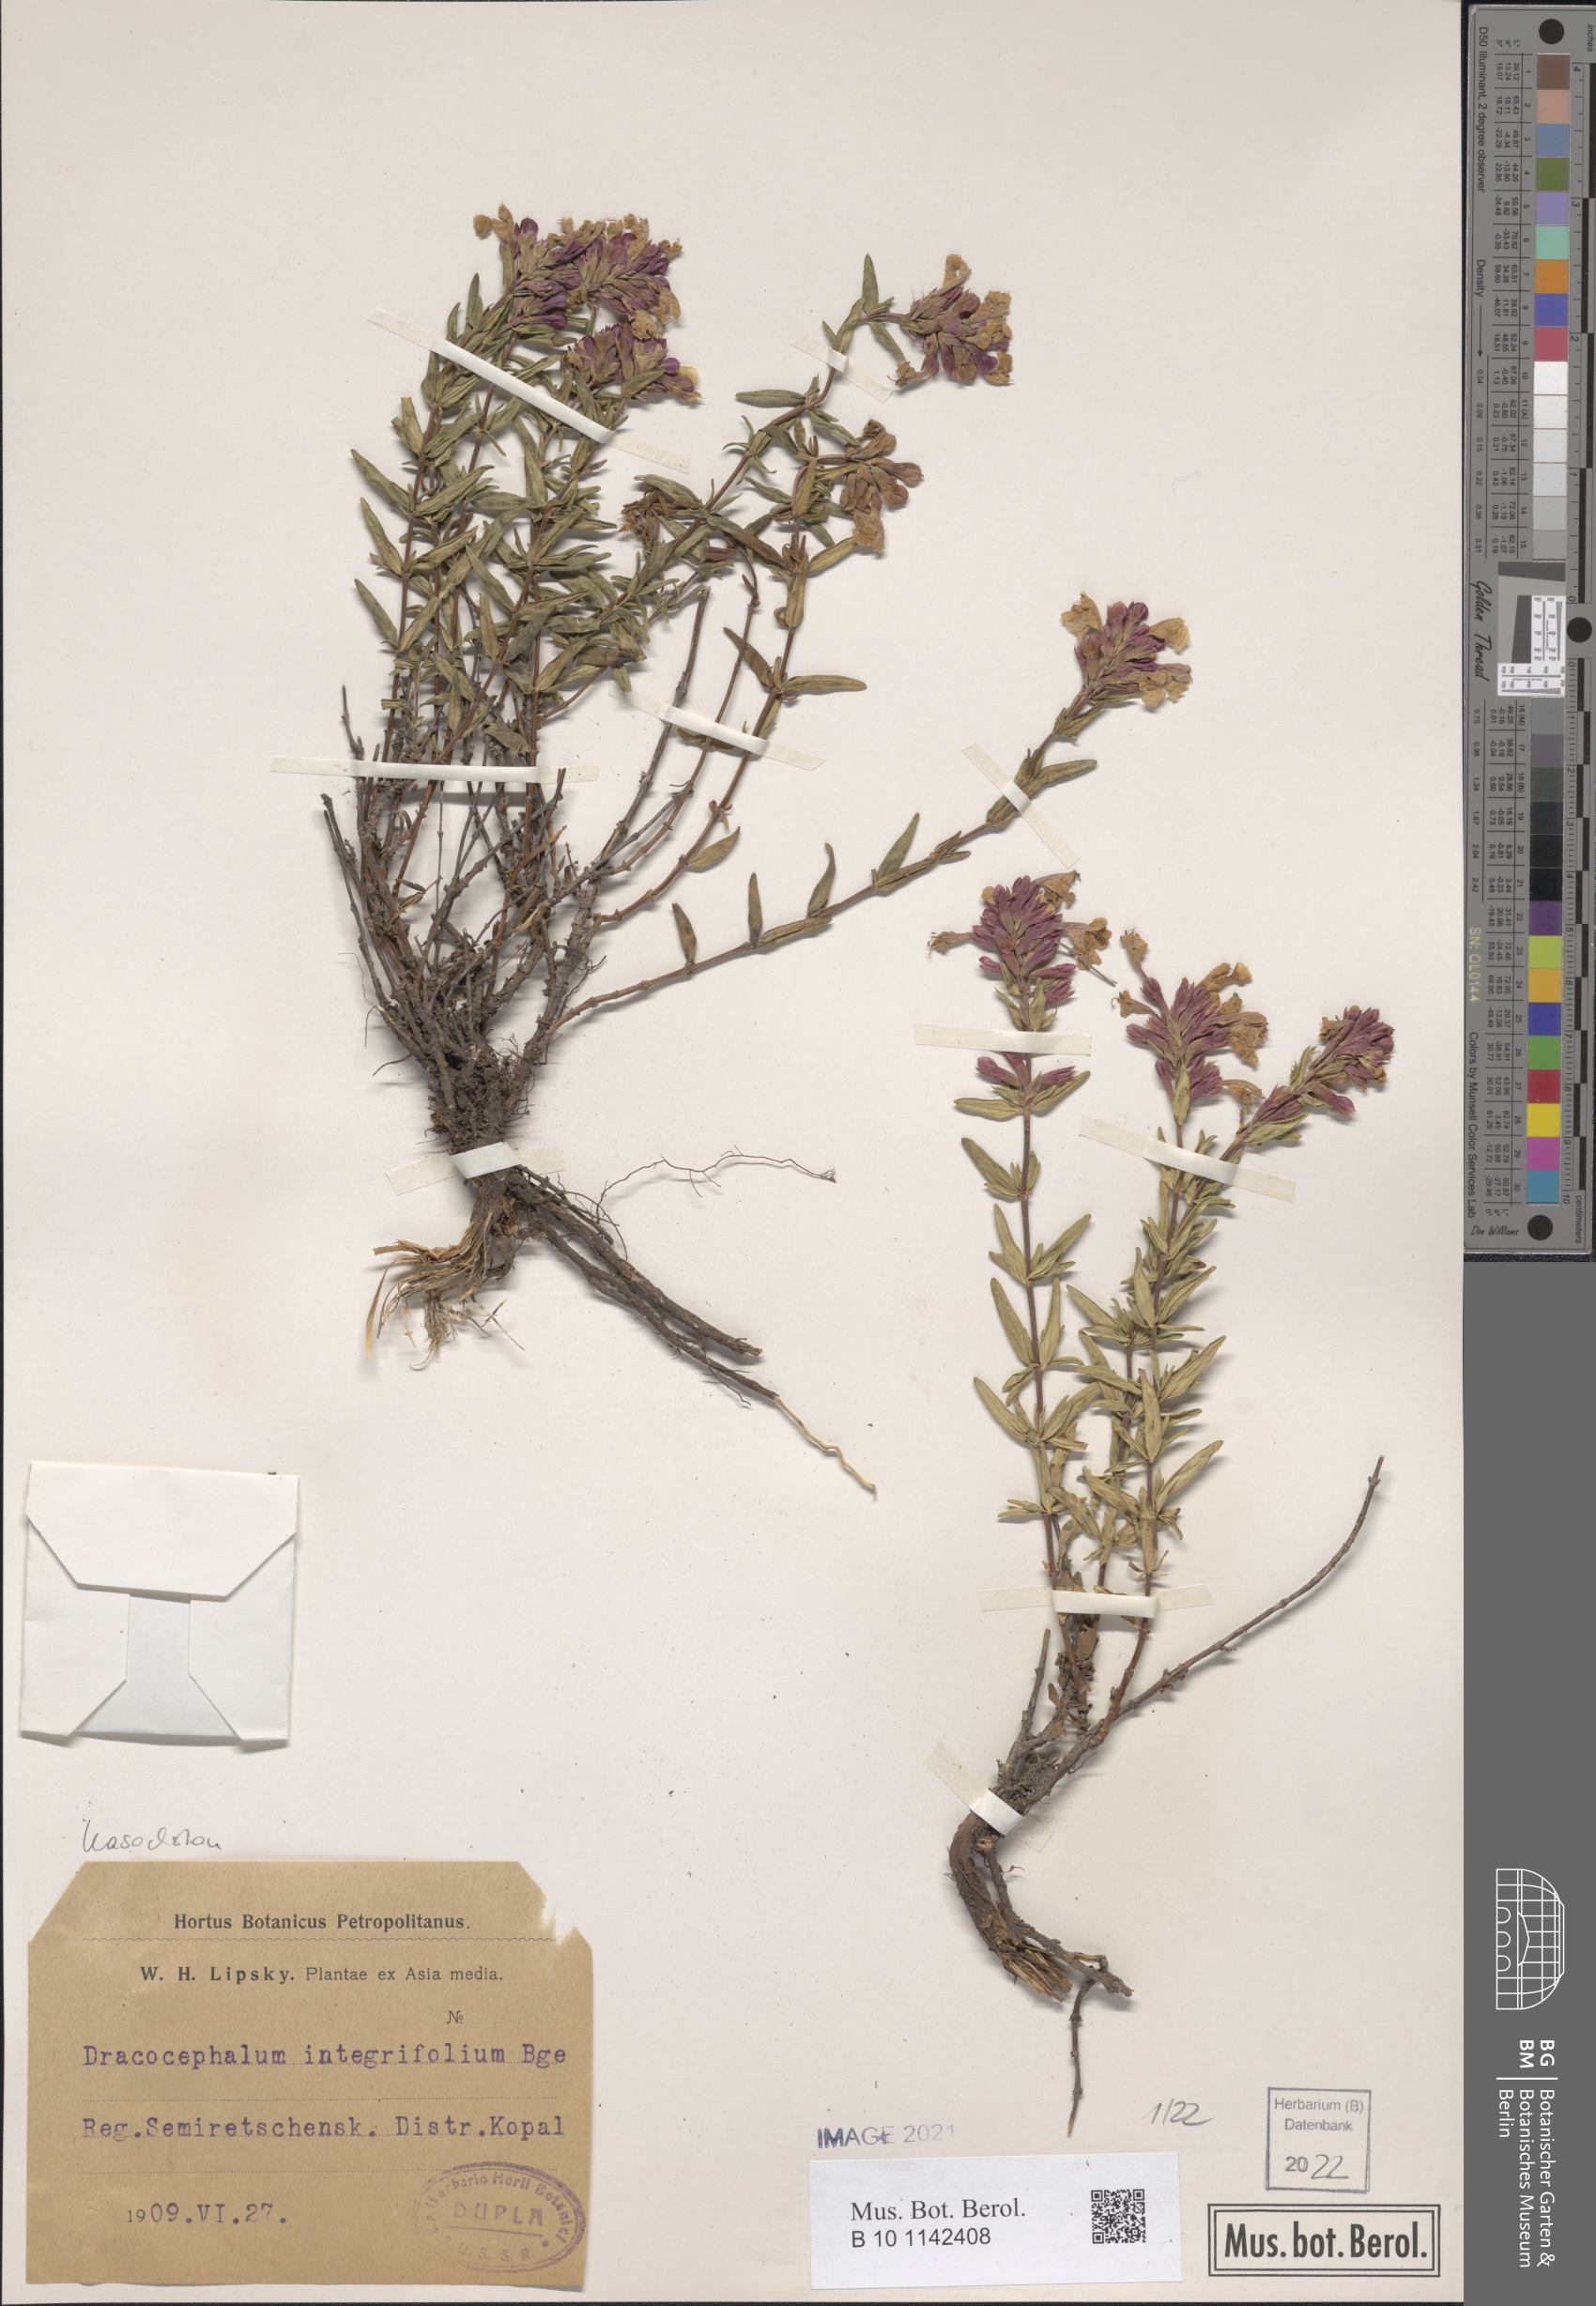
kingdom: Plantae
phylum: Tracheophyta
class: Magnoliopsida
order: Lamiales
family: Lamiaceae
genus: Dracocephalum
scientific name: Dracocephalum integrifolium
